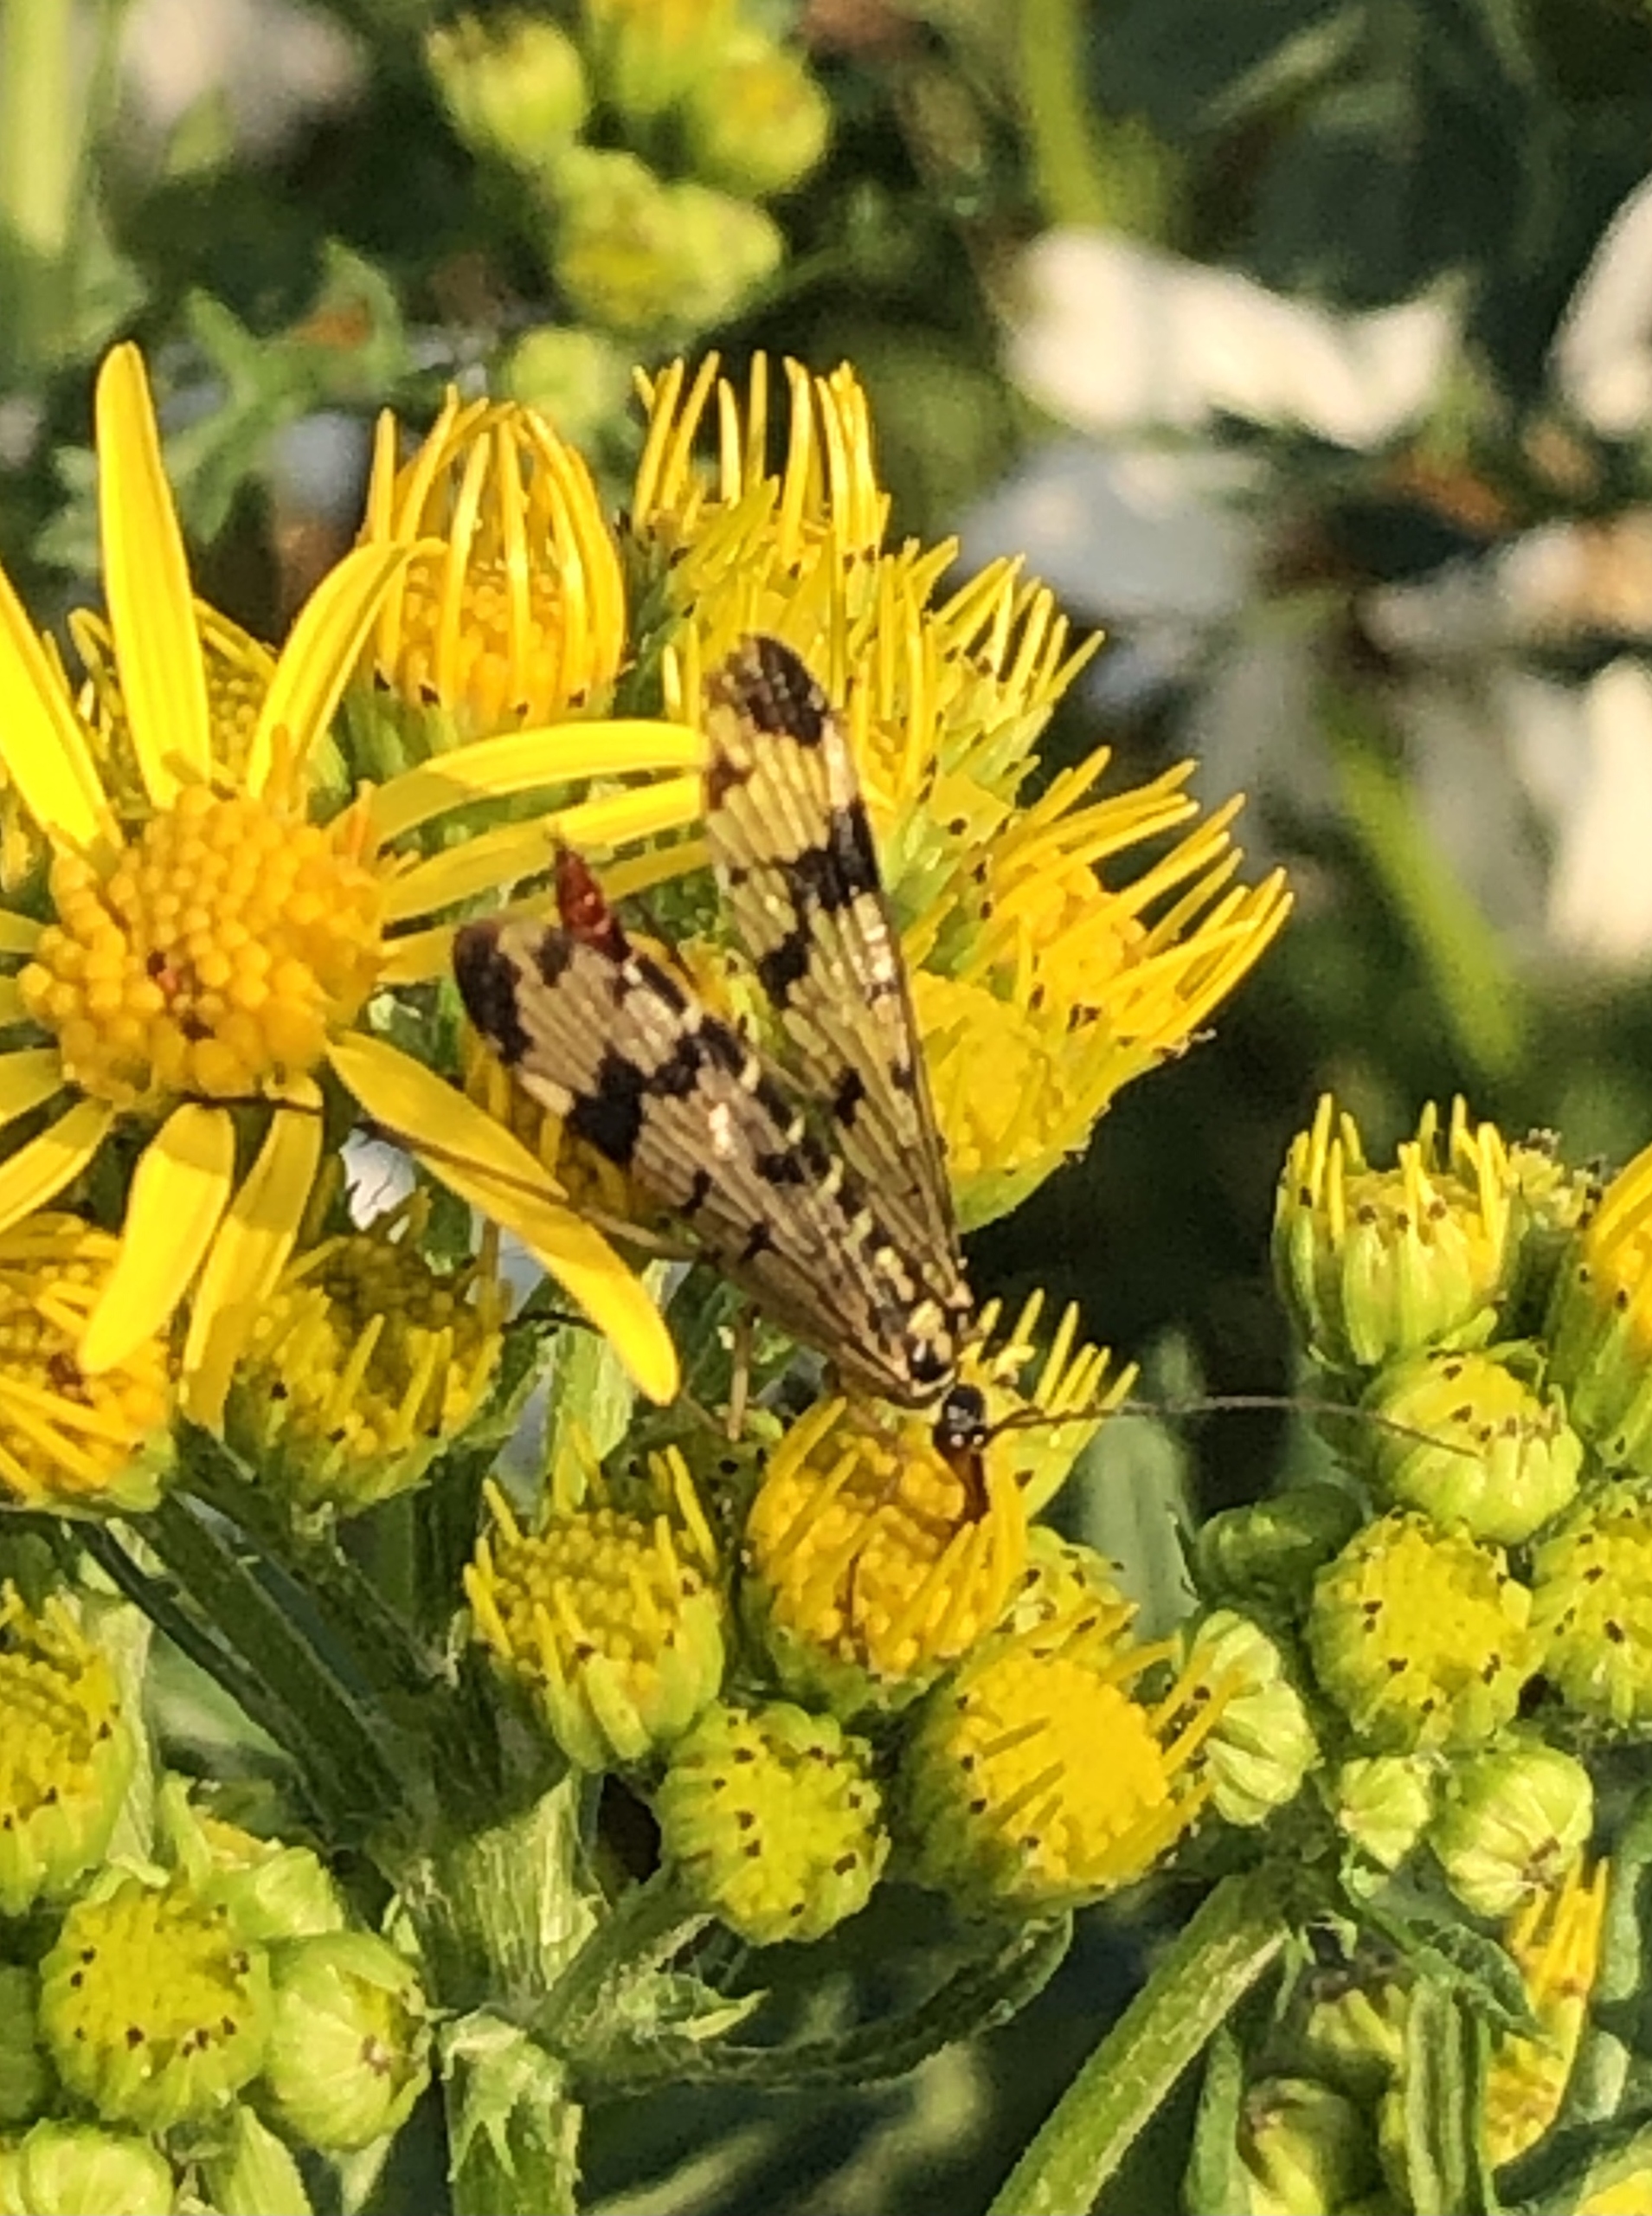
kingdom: Animalia
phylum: Arthropoda
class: Insecta
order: Mecoptera
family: Panorpidae
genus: Panorpa
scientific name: Panorpa communis
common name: Almindelig skorpionflue
